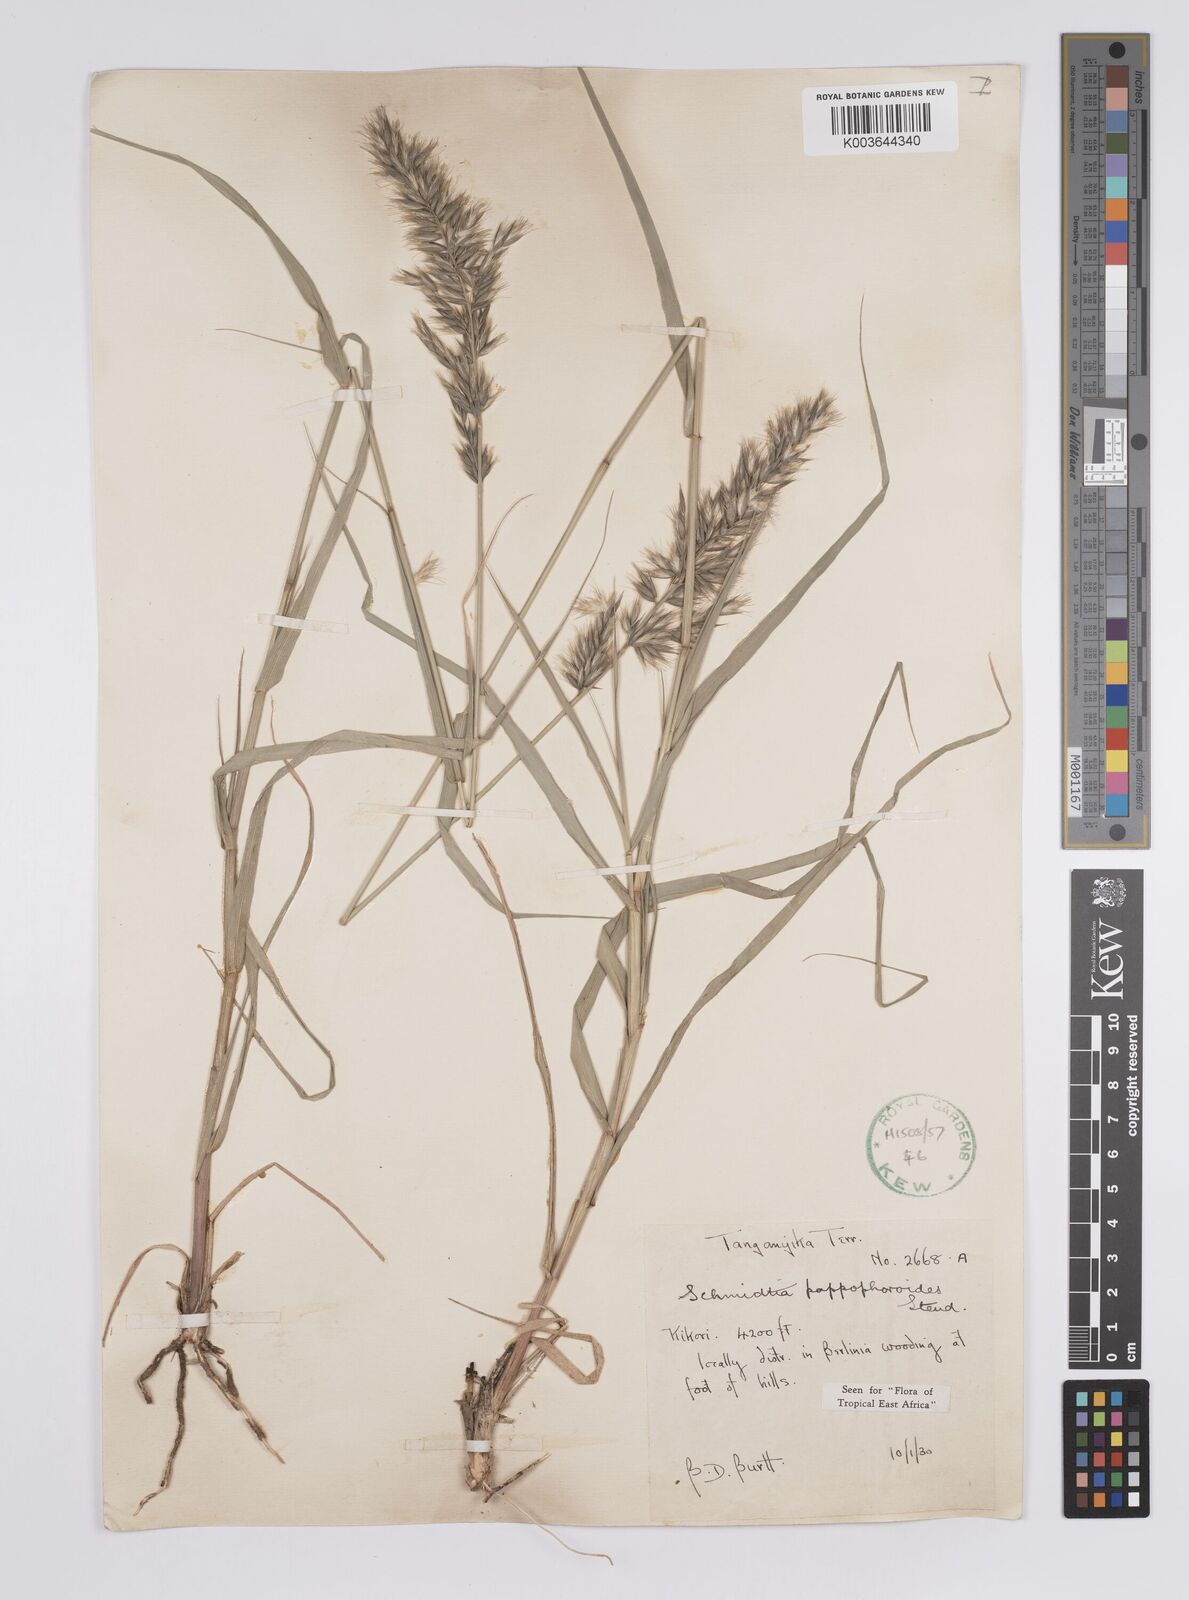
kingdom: Plantae
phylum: Tracheophyta
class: Liliopsida
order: Poales
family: Poaceae
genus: Schmidtia
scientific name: Schmidtia pappophoroides
